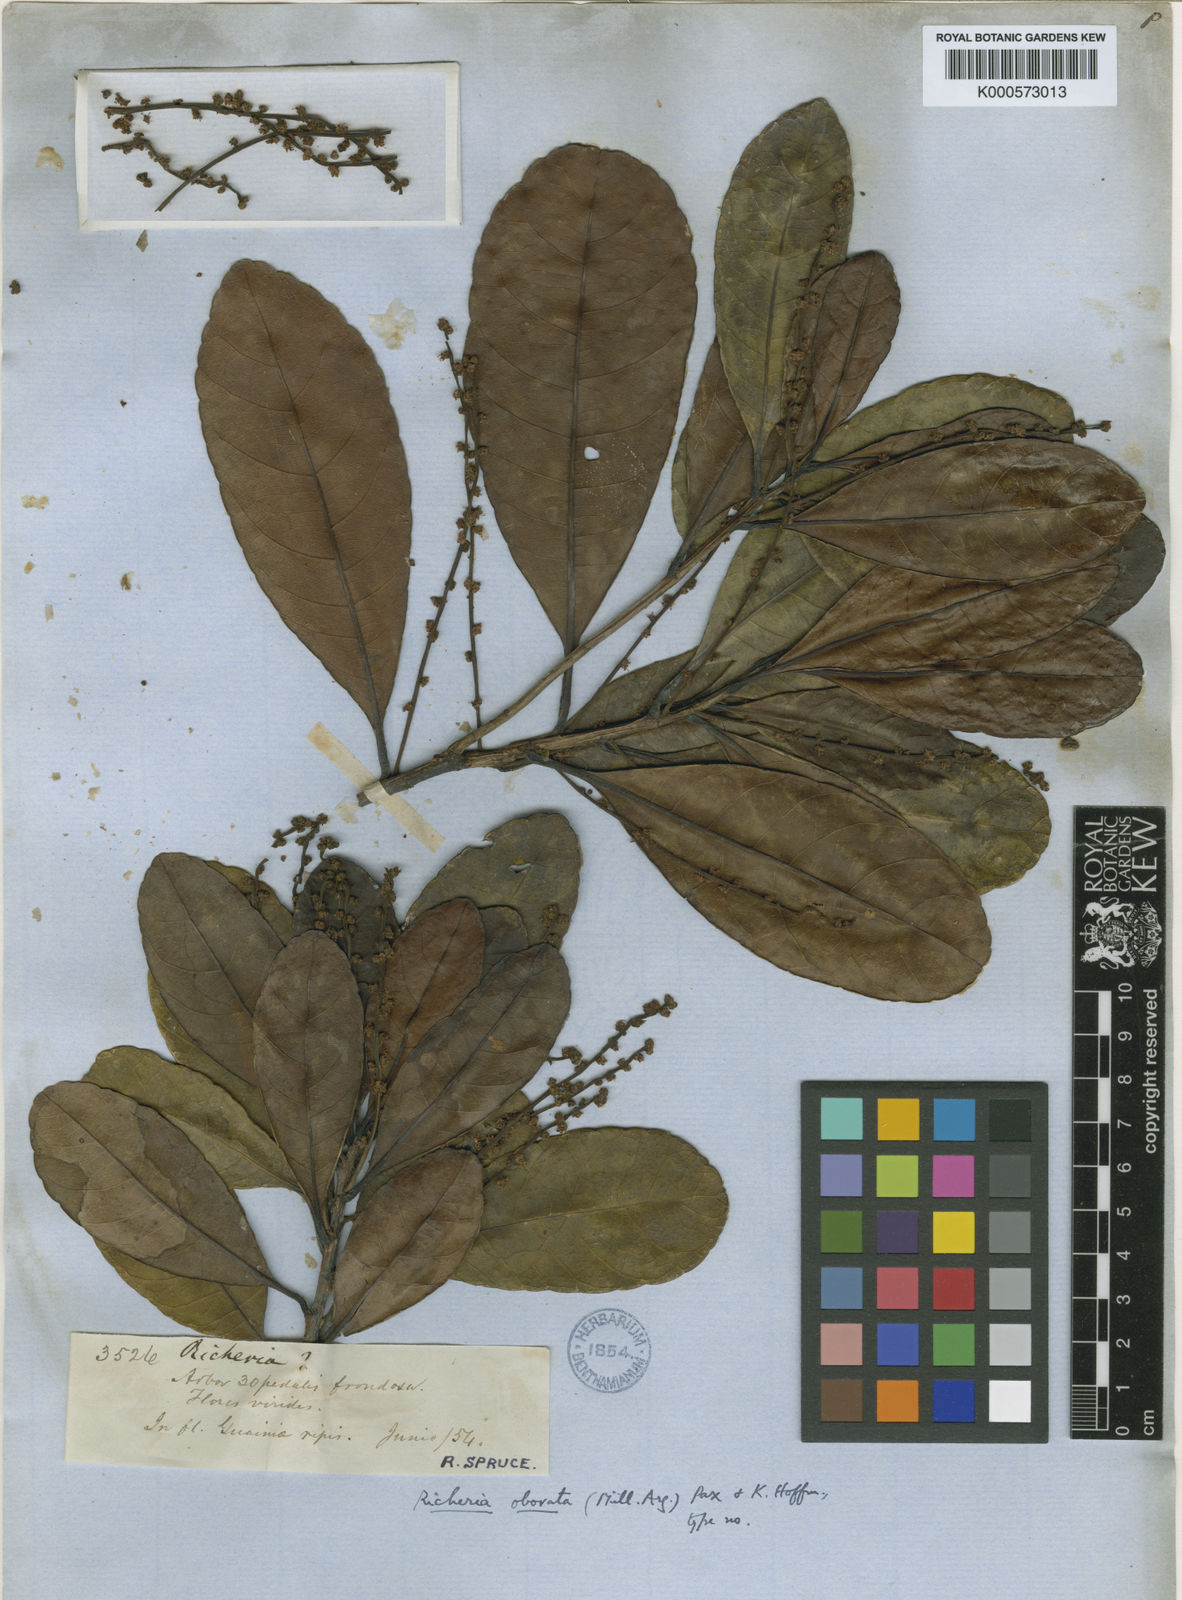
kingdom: Plantae
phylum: Tracheophyta
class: Magnoliopsida
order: Malpighiales
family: Phyllanthaceae
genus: Richeria
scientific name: Richeria
